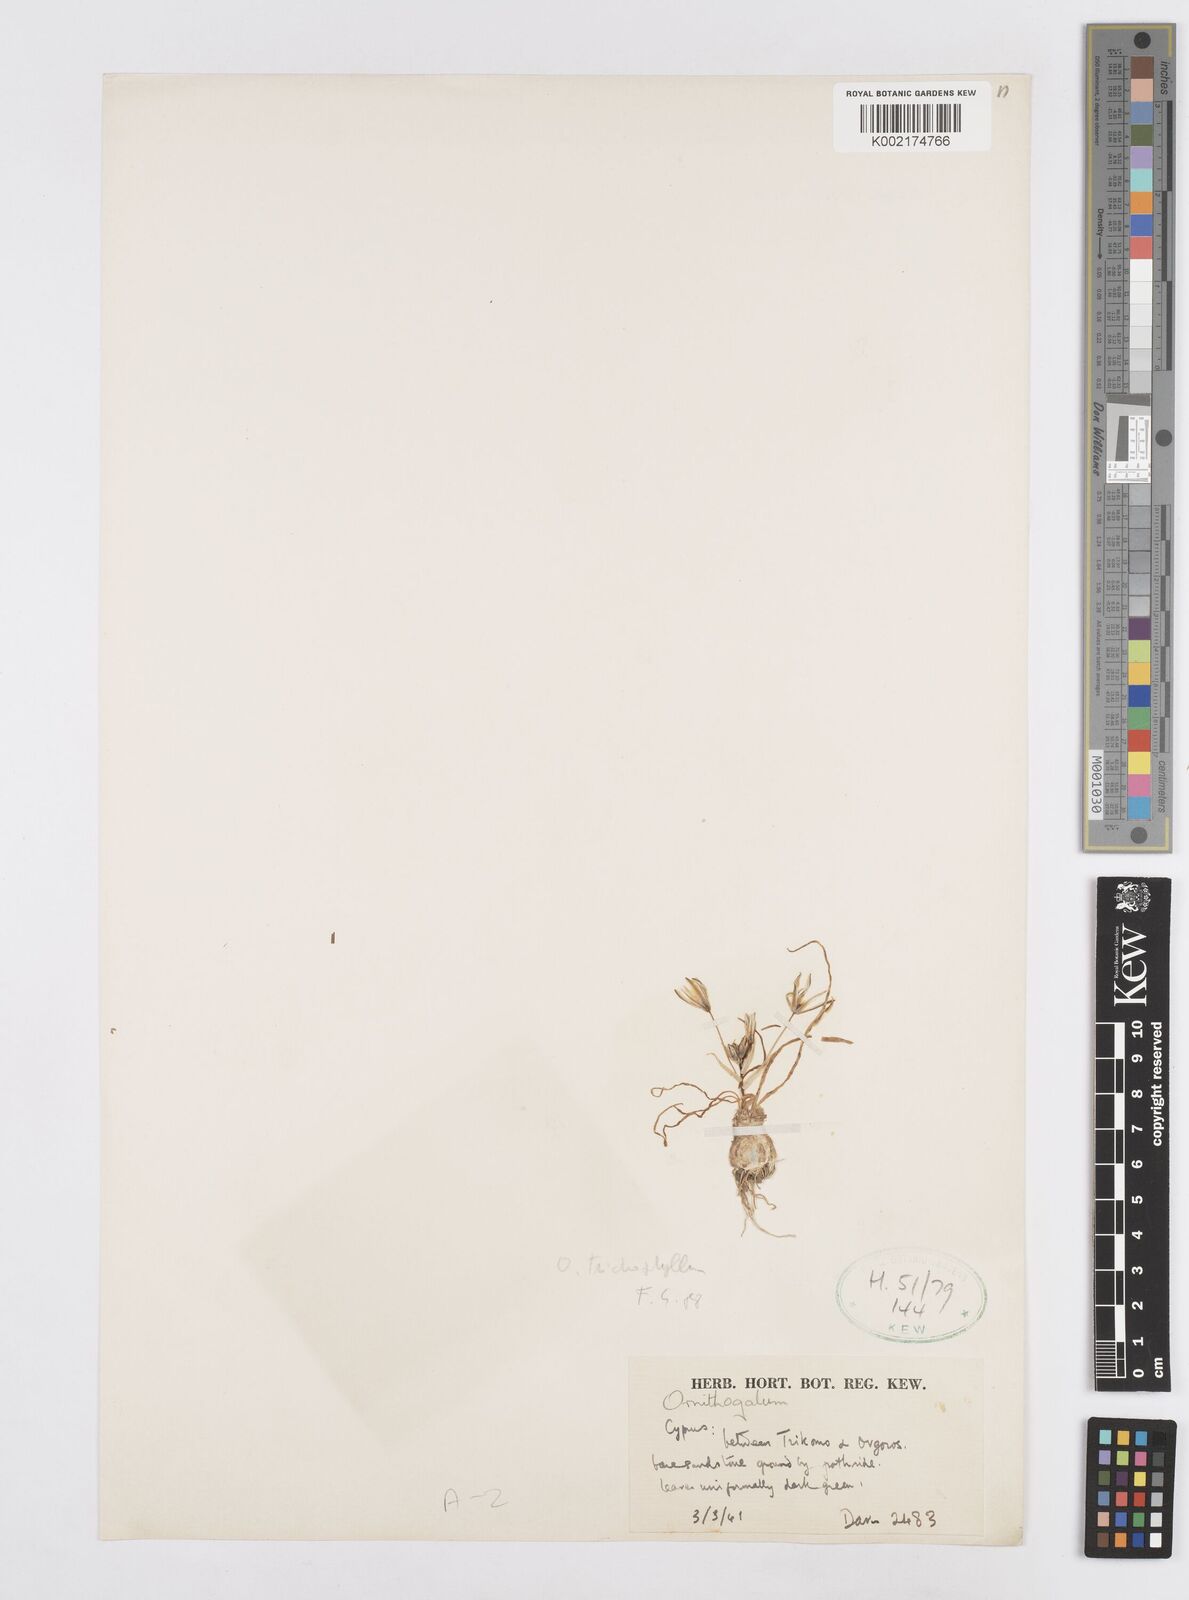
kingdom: Plantae
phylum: Tracheophyta
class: Liliopsida
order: Asparagales
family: Asparagaceae
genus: Ornithogalum
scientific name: Ornithogalum trichophyllum
